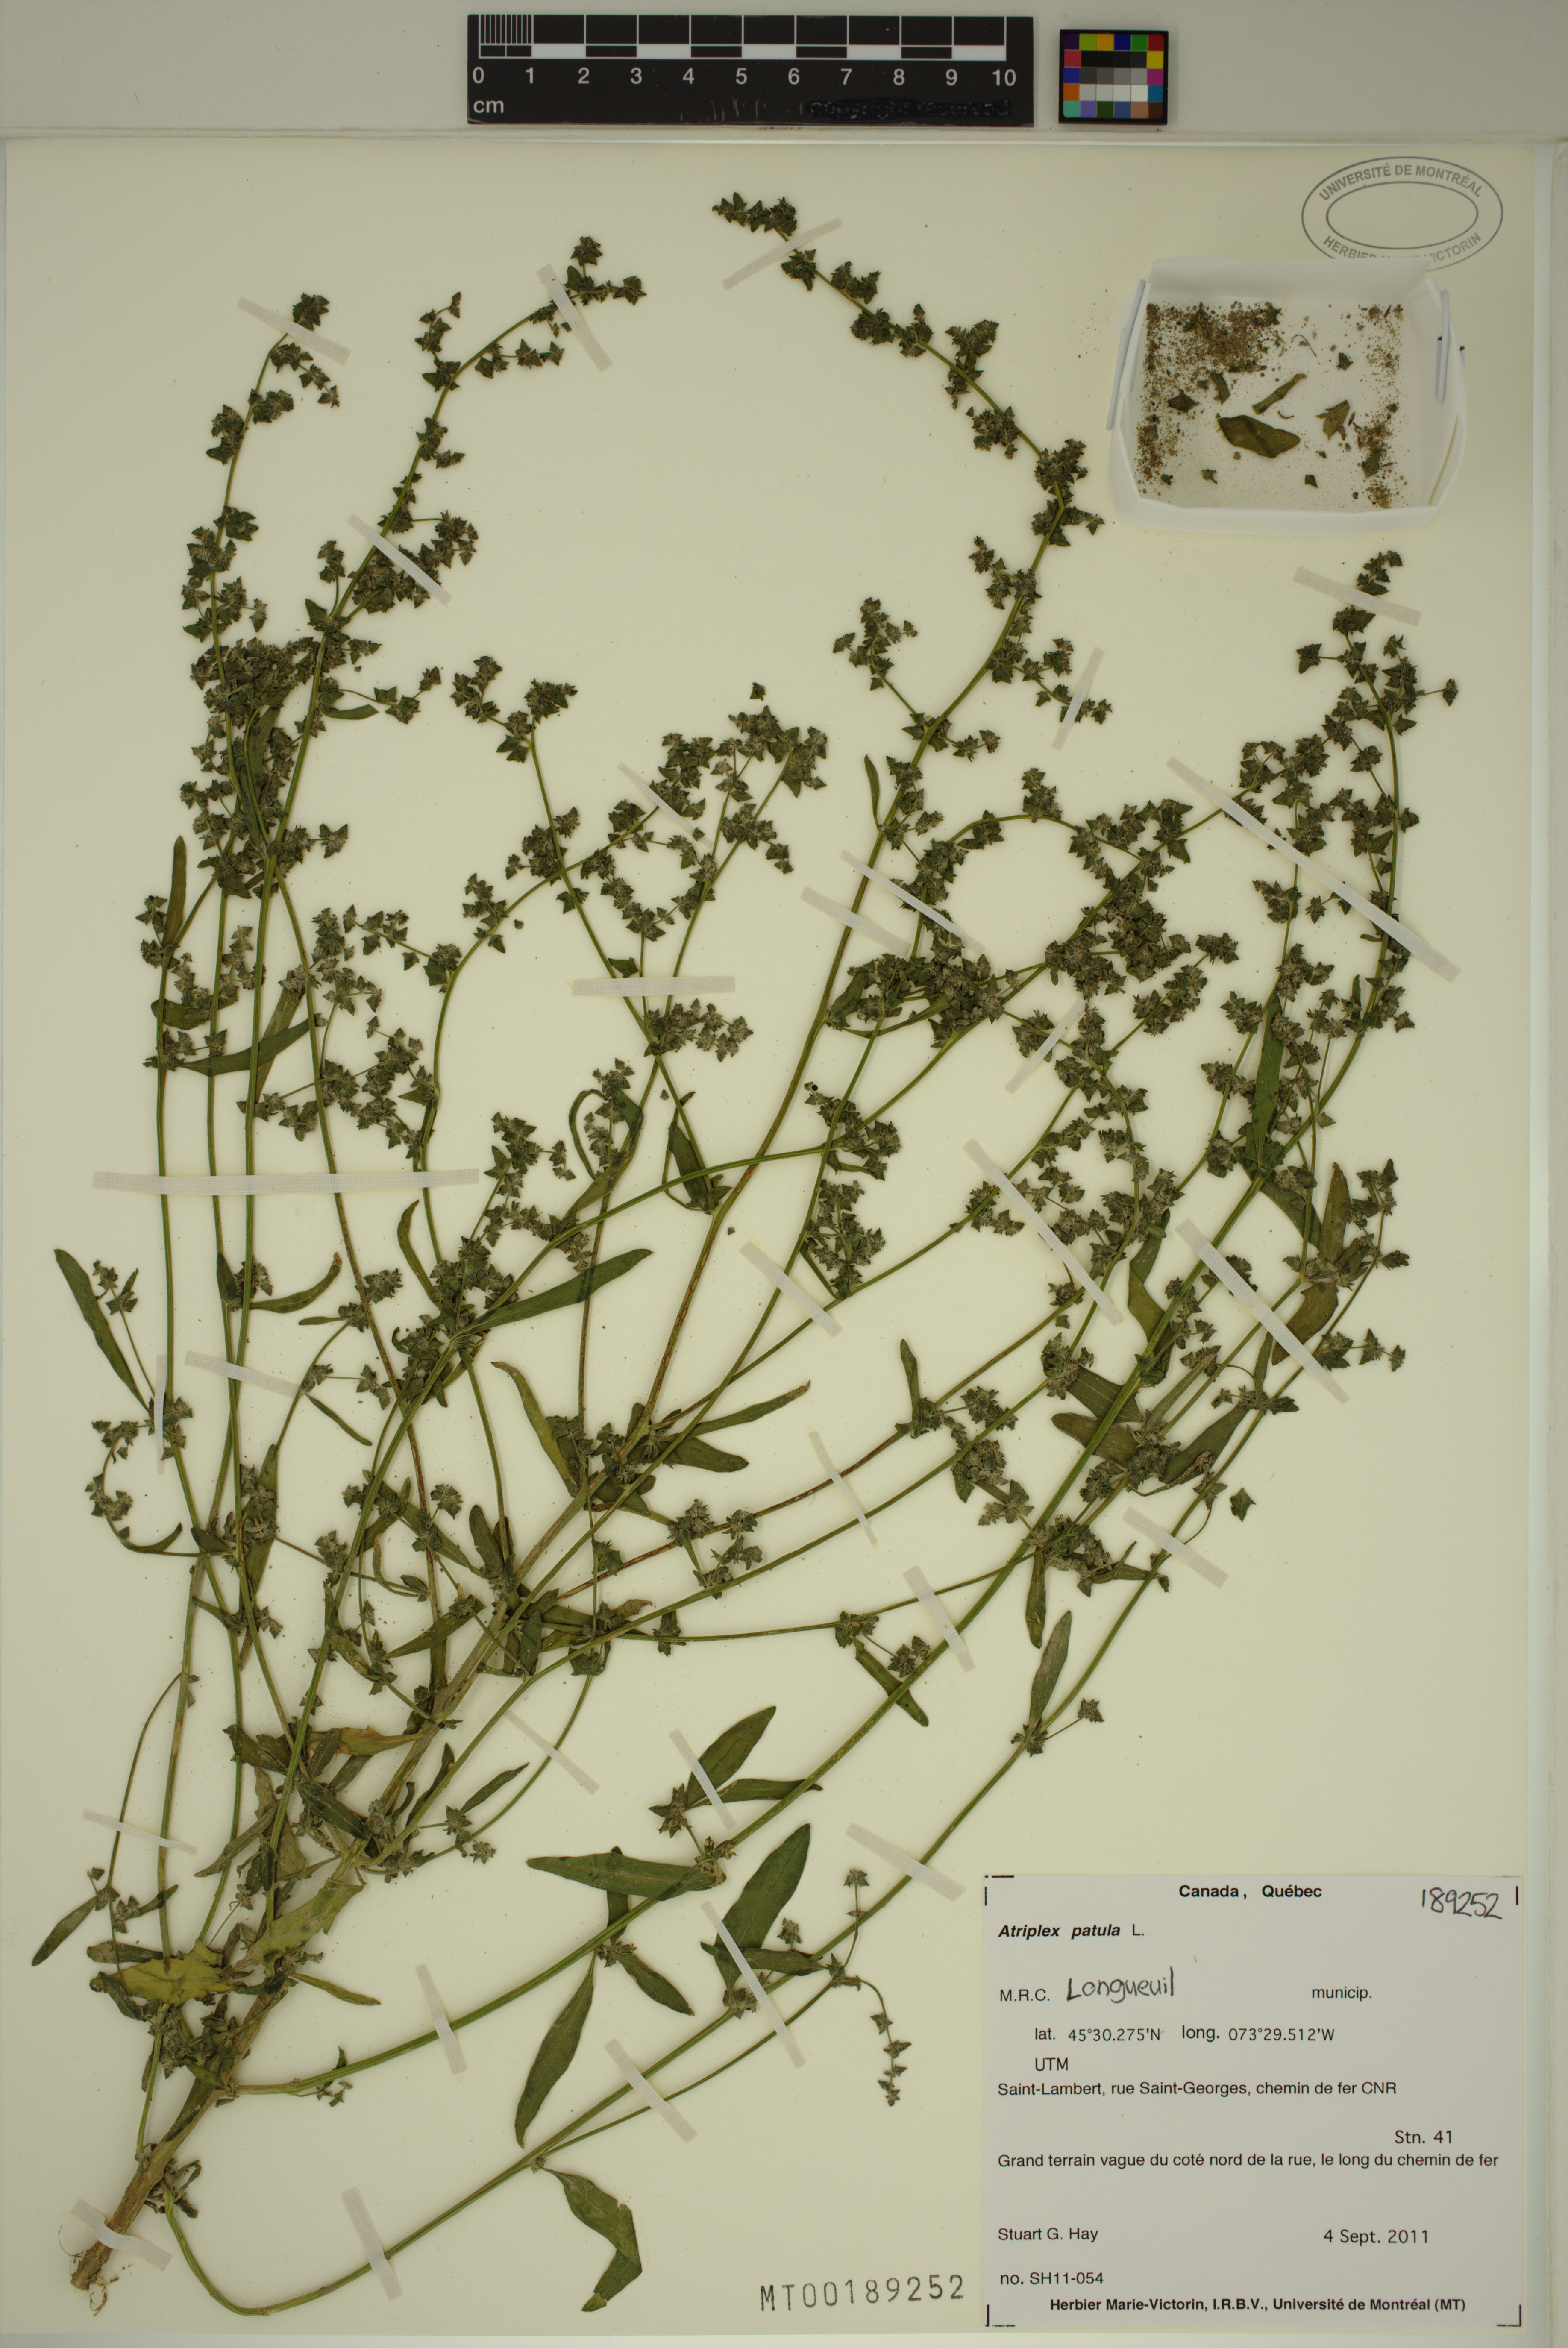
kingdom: Plantae
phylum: Tracheophyta
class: Magnoliopsida
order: Caryophyllales
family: Amaranthaceae
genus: Atriplex
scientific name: Atriplex patula
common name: Common orache
